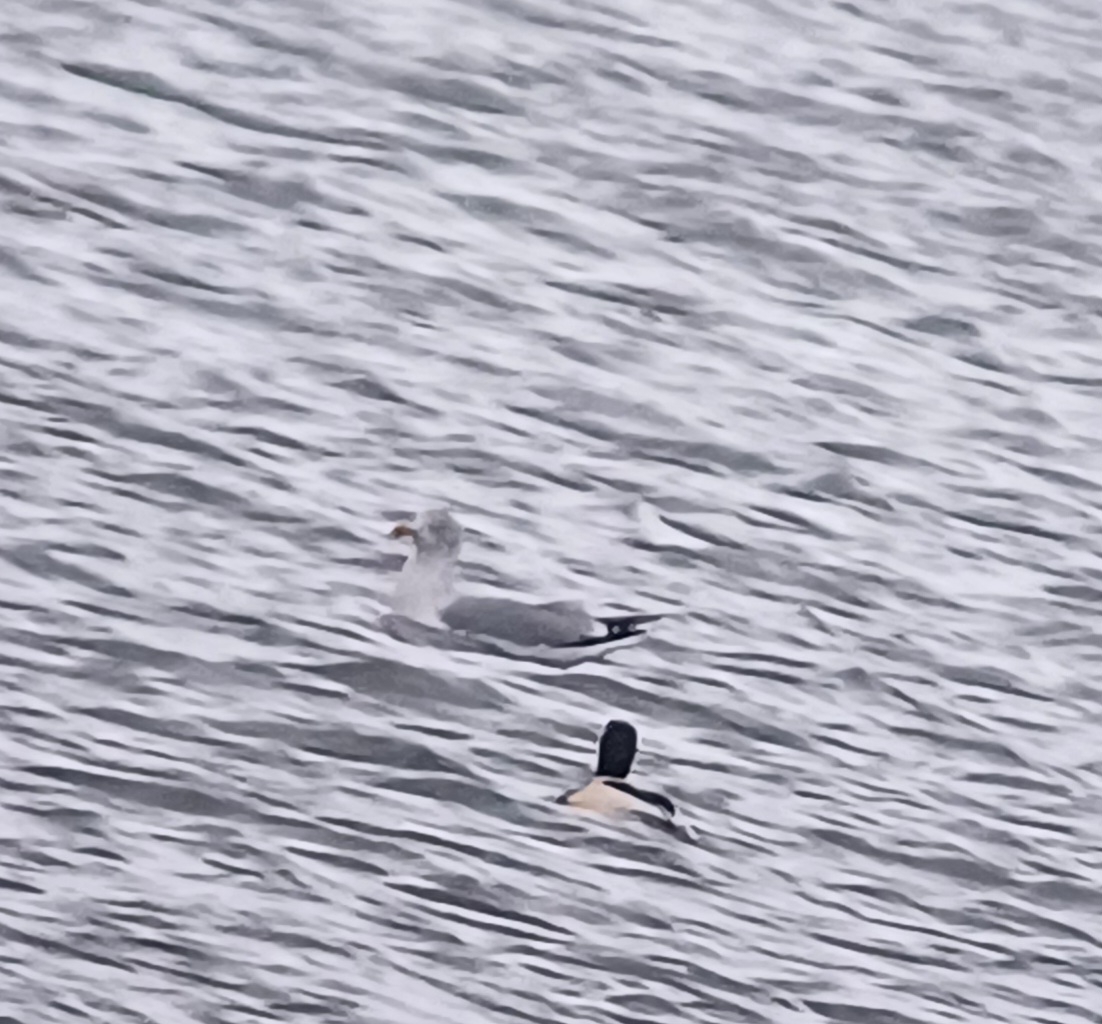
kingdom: Animalia
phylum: Chordata
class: Aves
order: Charadriiformes
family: Laridae
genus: Larus
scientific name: Larus argentatus
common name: Sølvmåge
